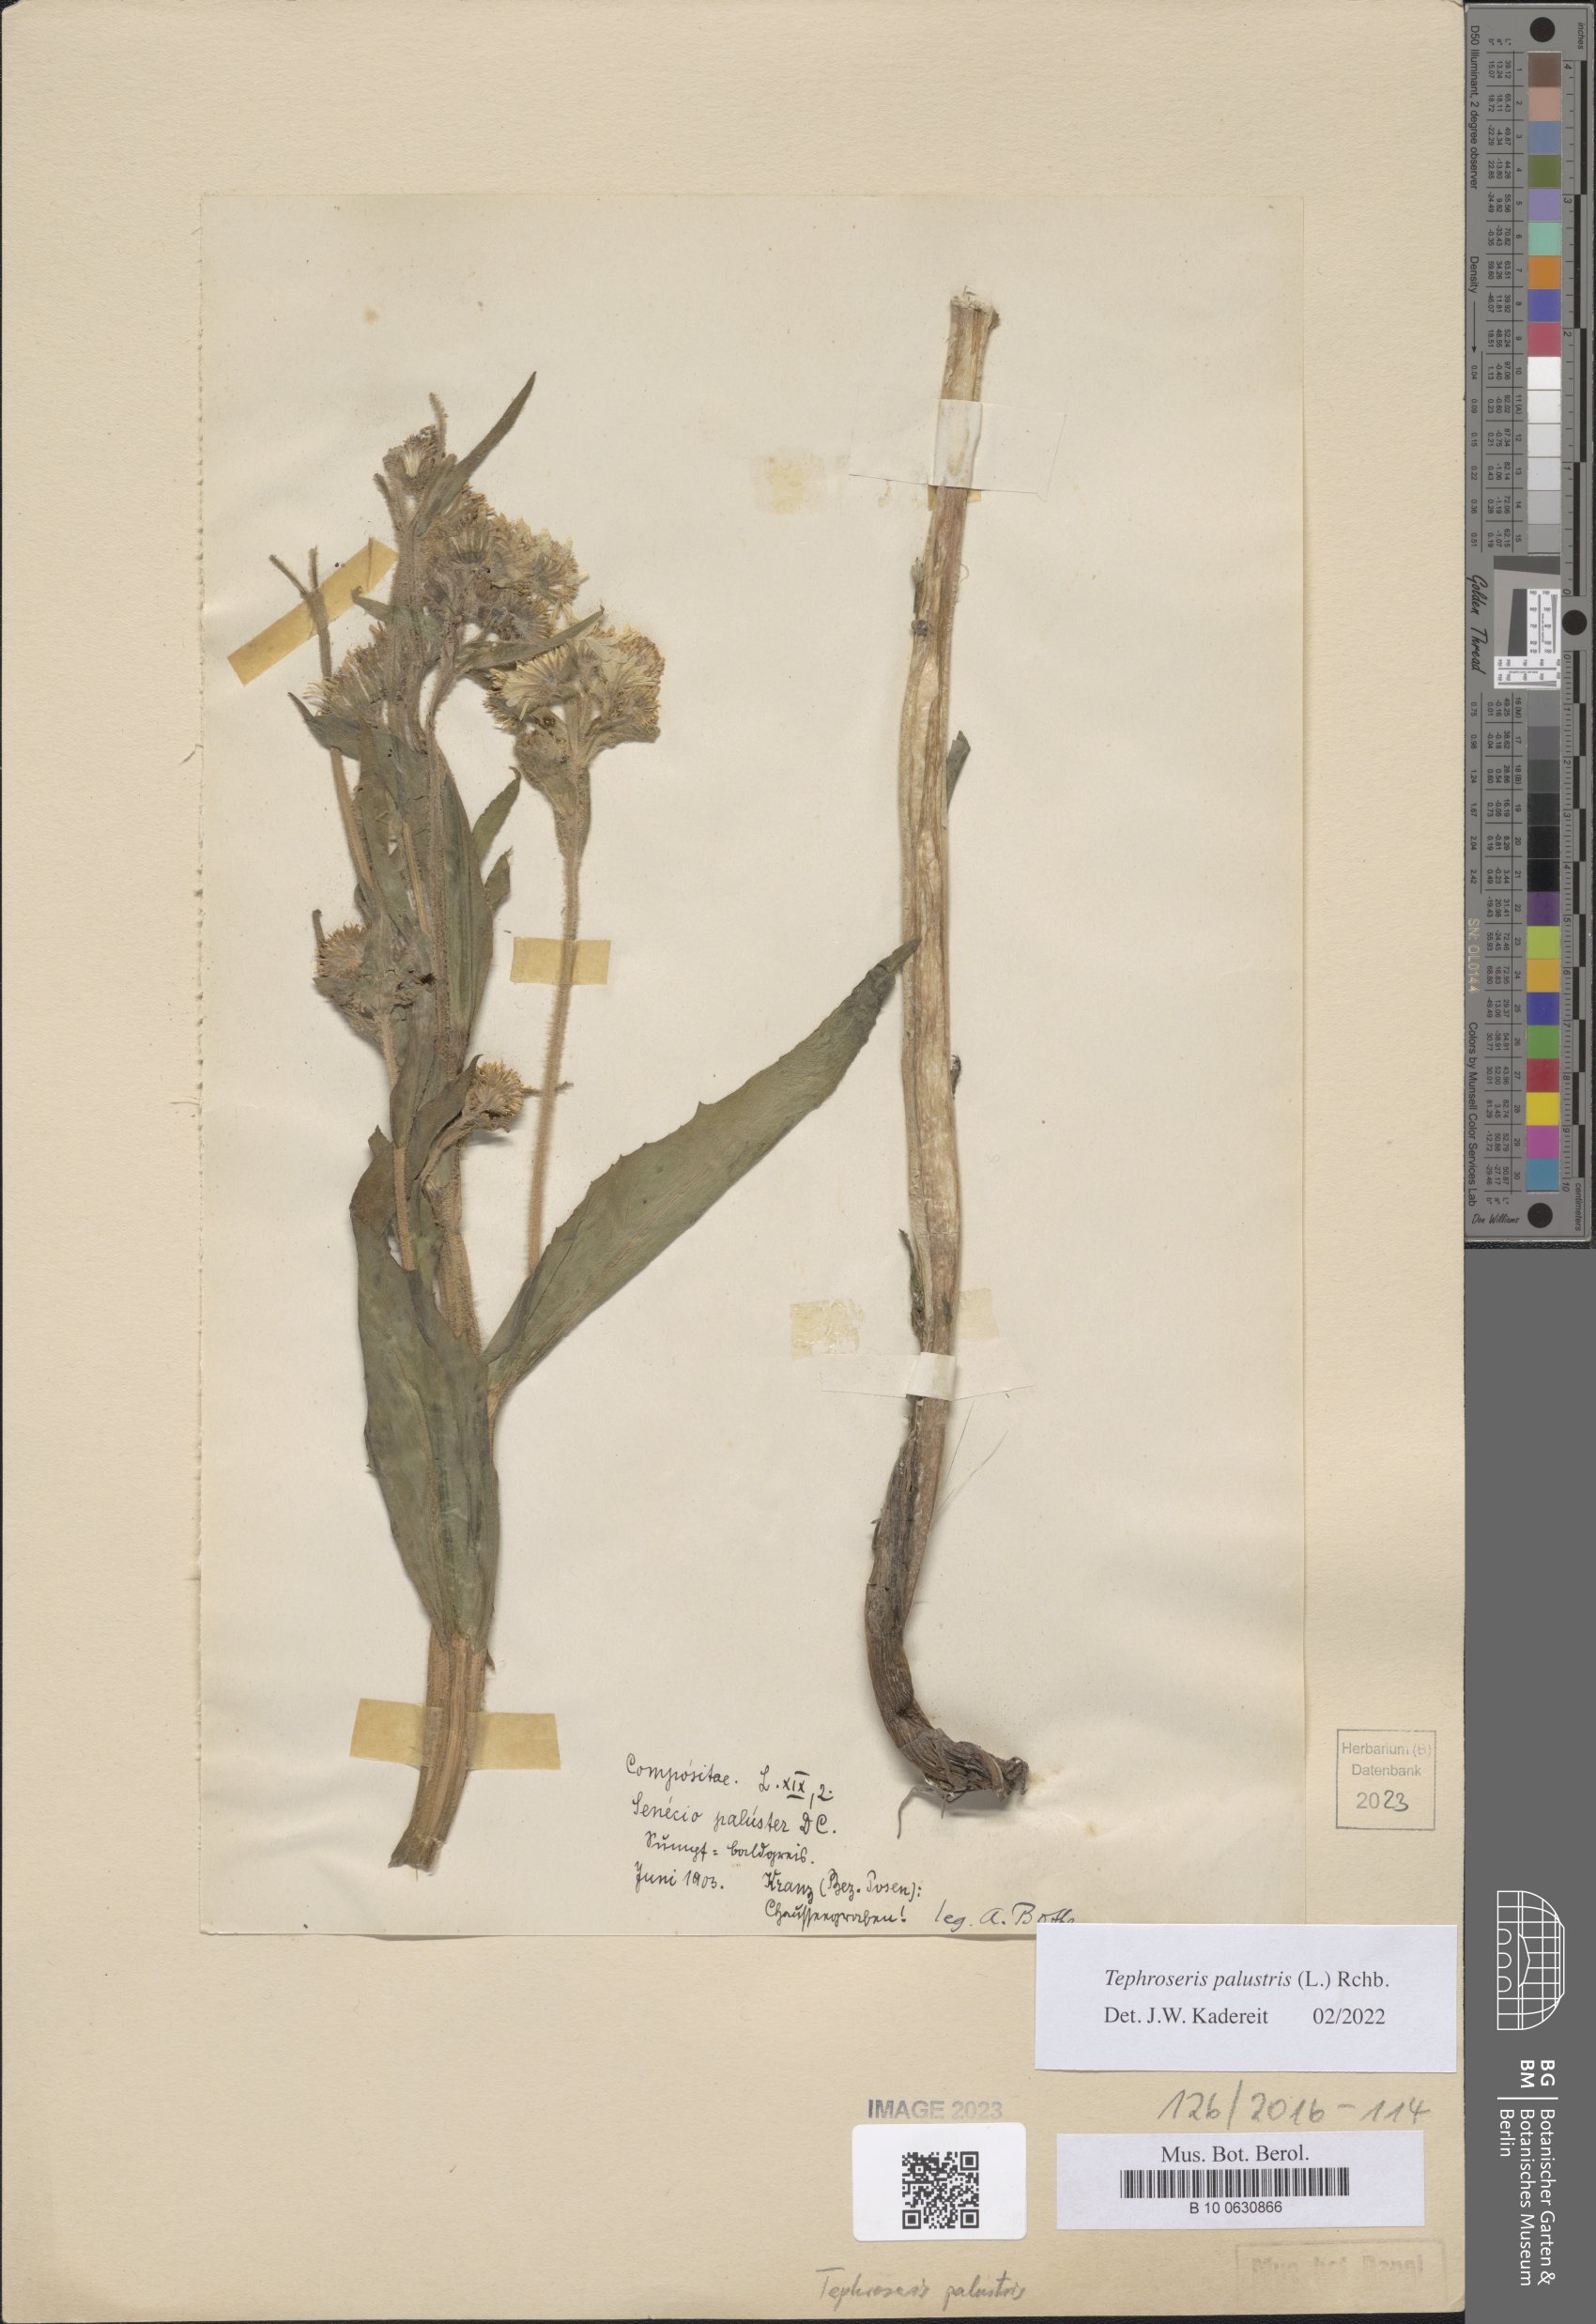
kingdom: Plantae
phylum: Tracheophyta
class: Magnoliopsida
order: Asterales
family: Asteraceae
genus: Tephroseris
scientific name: Tephroseris palustris
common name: Marsh fleawort
